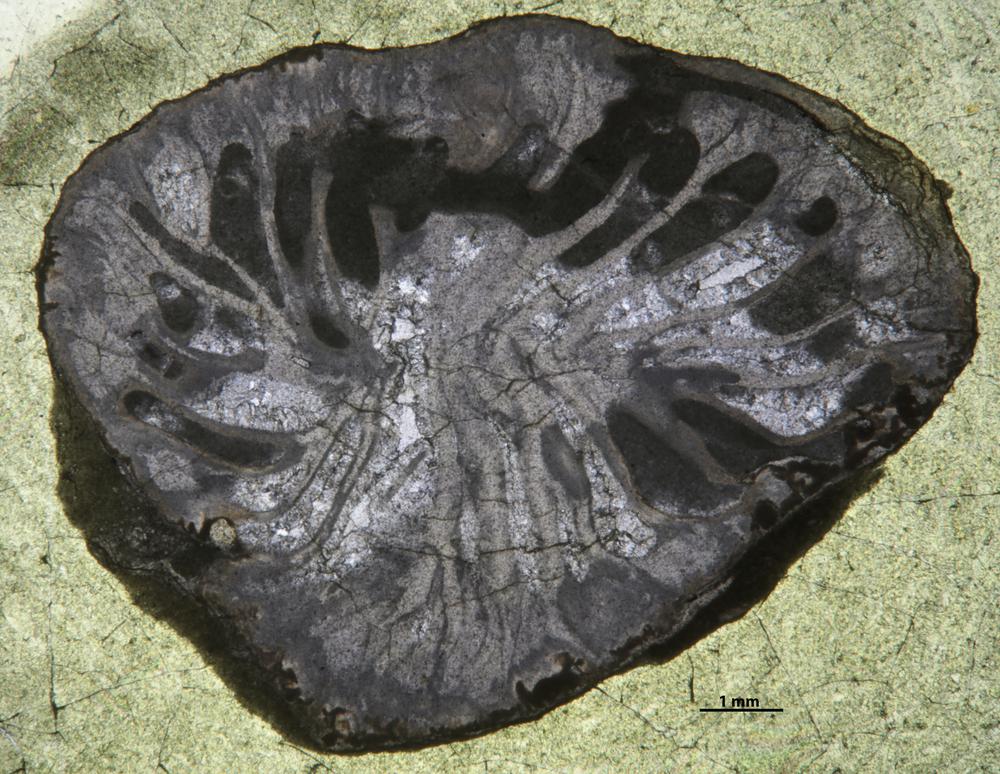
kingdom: Animalia
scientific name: Animalia
